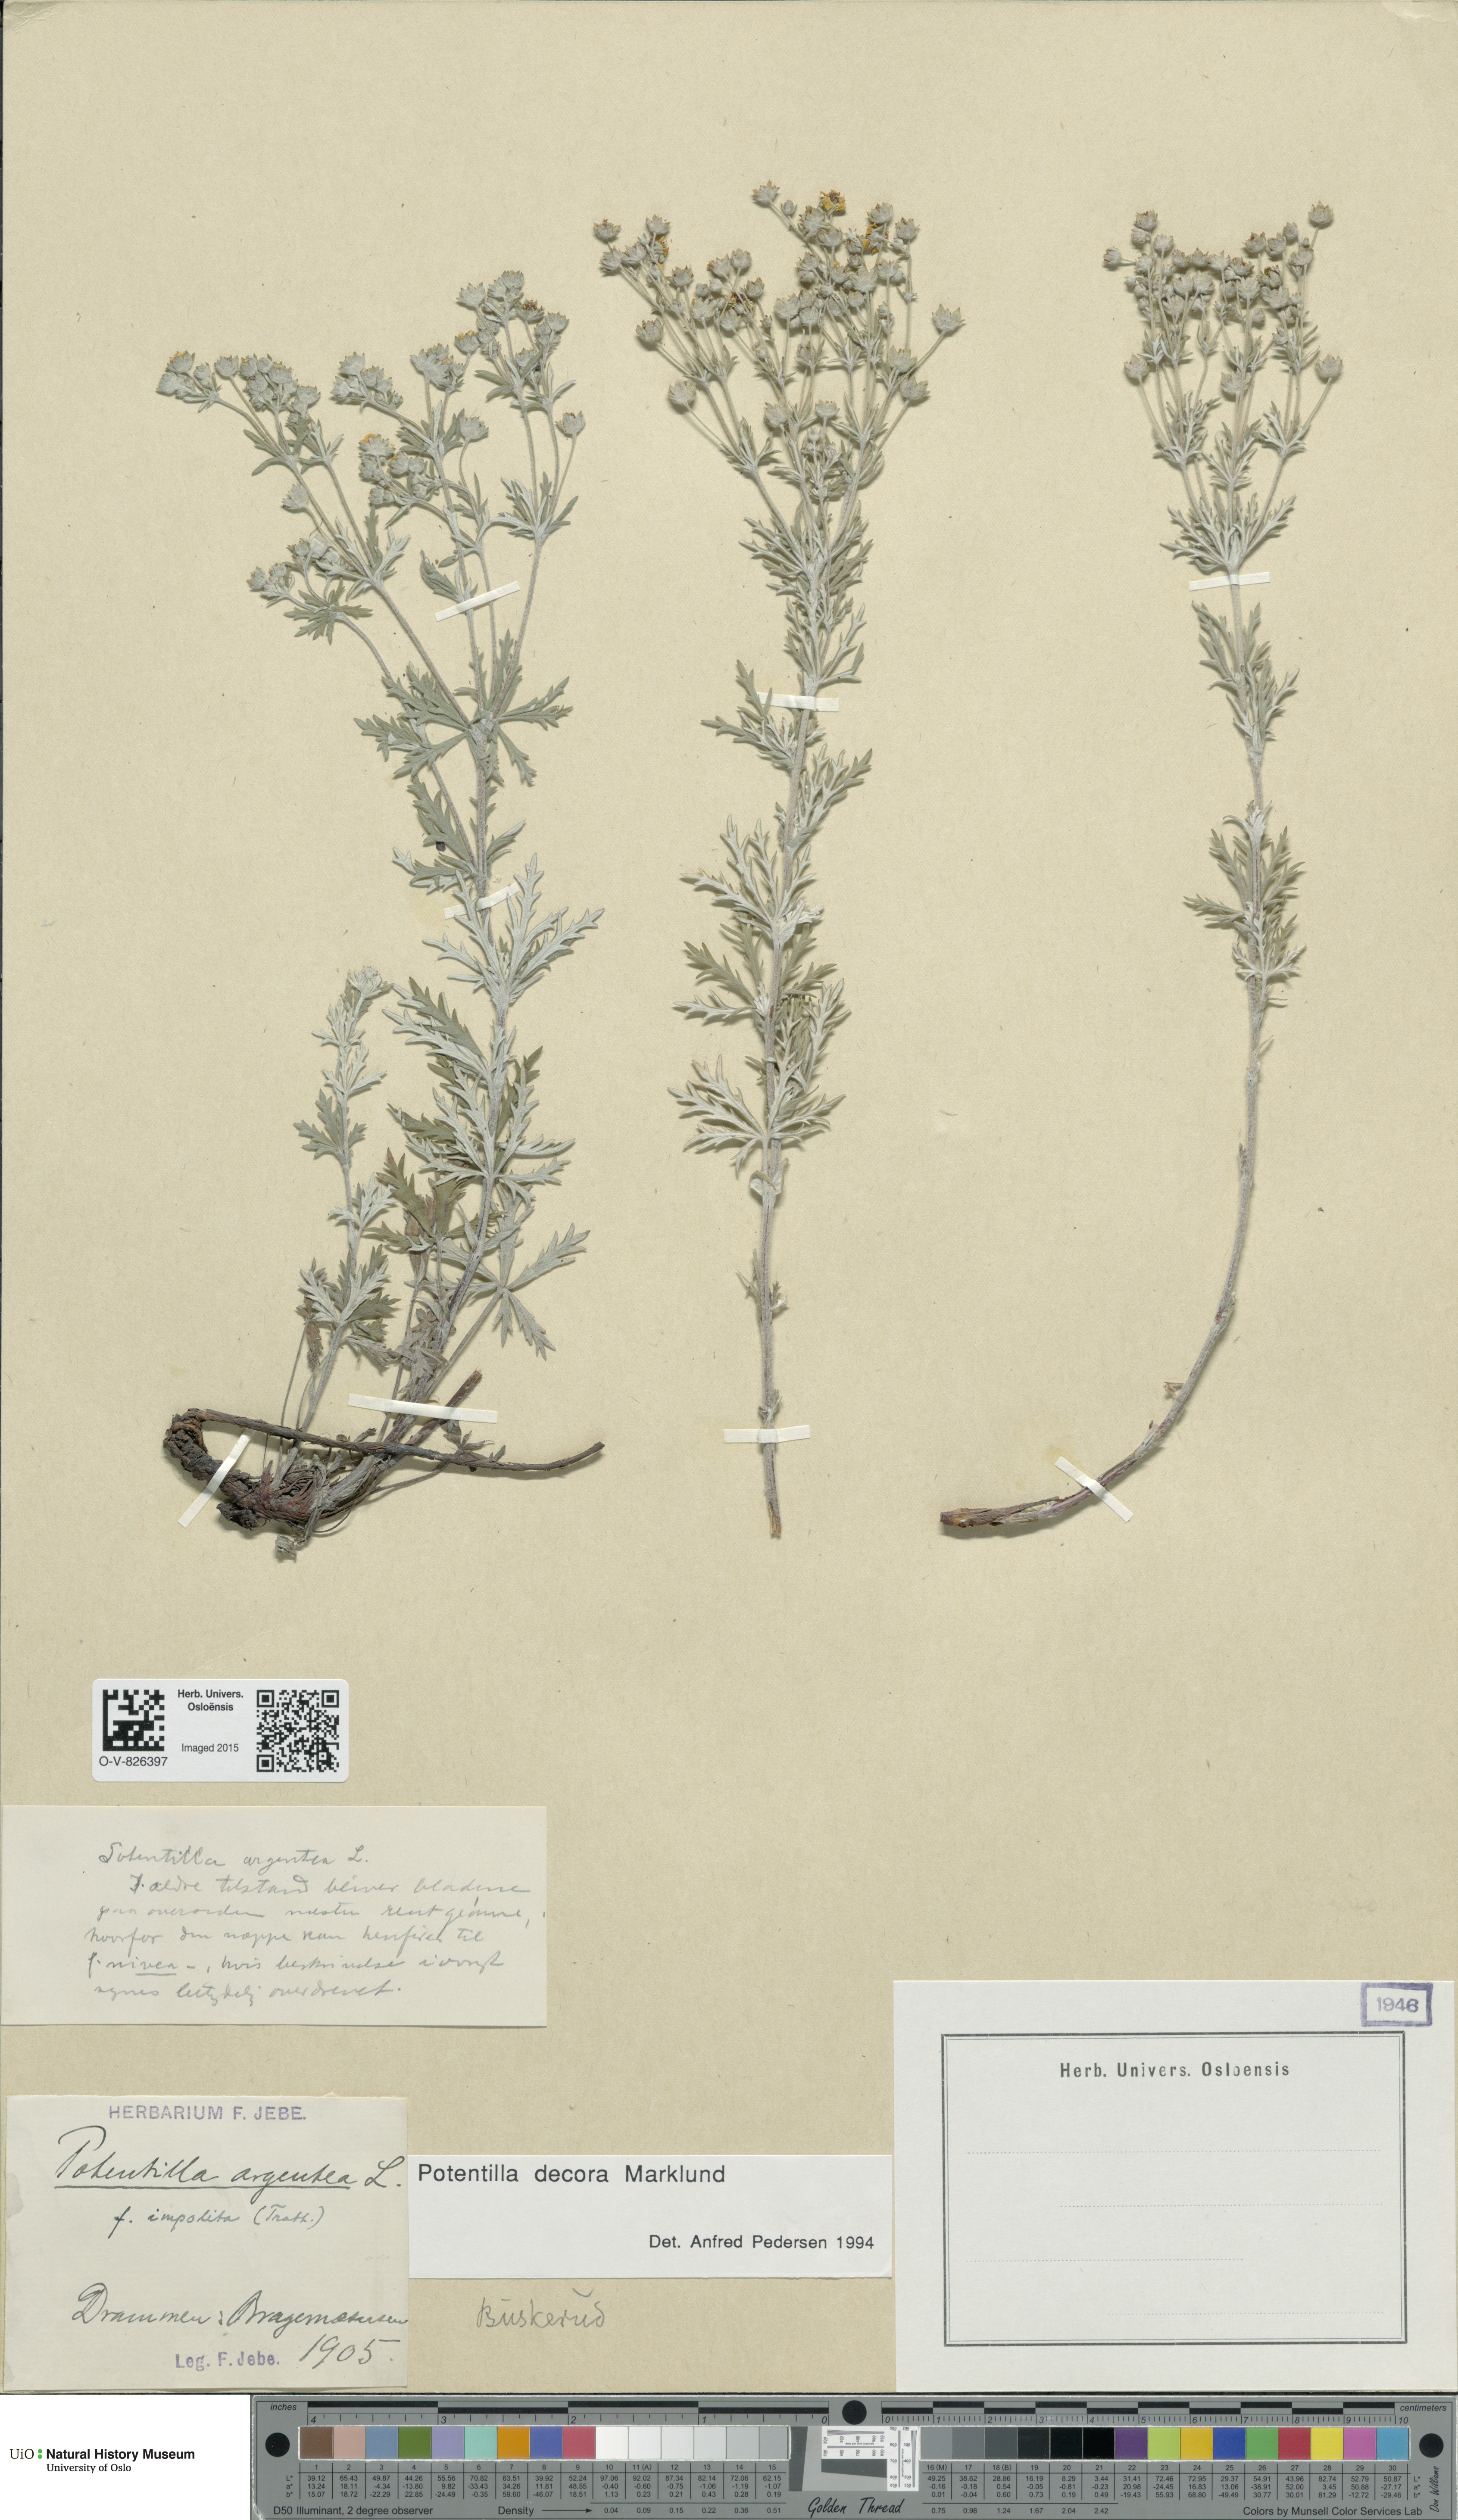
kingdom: Plantae
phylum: Tracheophyta
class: Magnoliopsida
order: Rosales
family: Rosaceae
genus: Potentilla
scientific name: Potentilla neglecta
